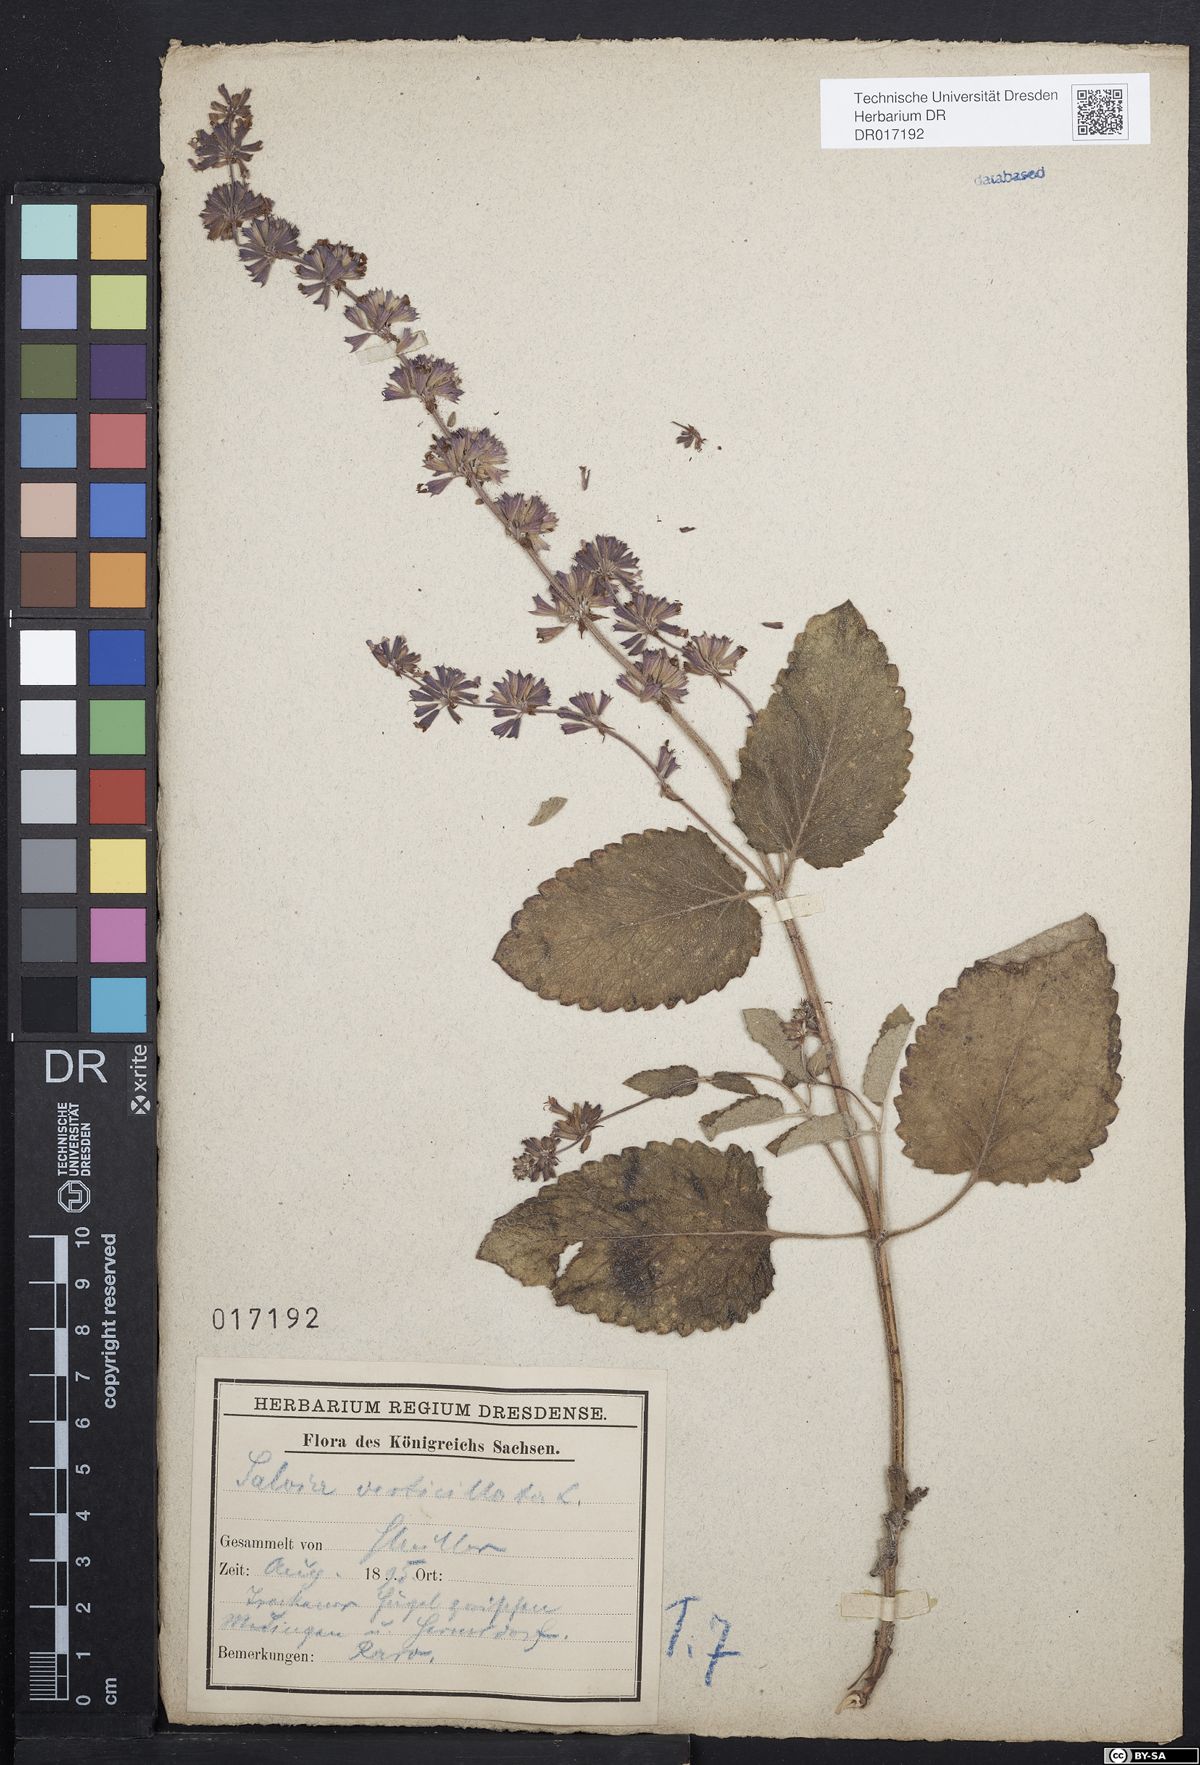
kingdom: Plantae
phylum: Tracheophyta
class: Magnoliopsida
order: Lamiales
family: Lamiaceae
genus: Salvia
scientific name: Salvia verticillata
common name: Whorled clary
